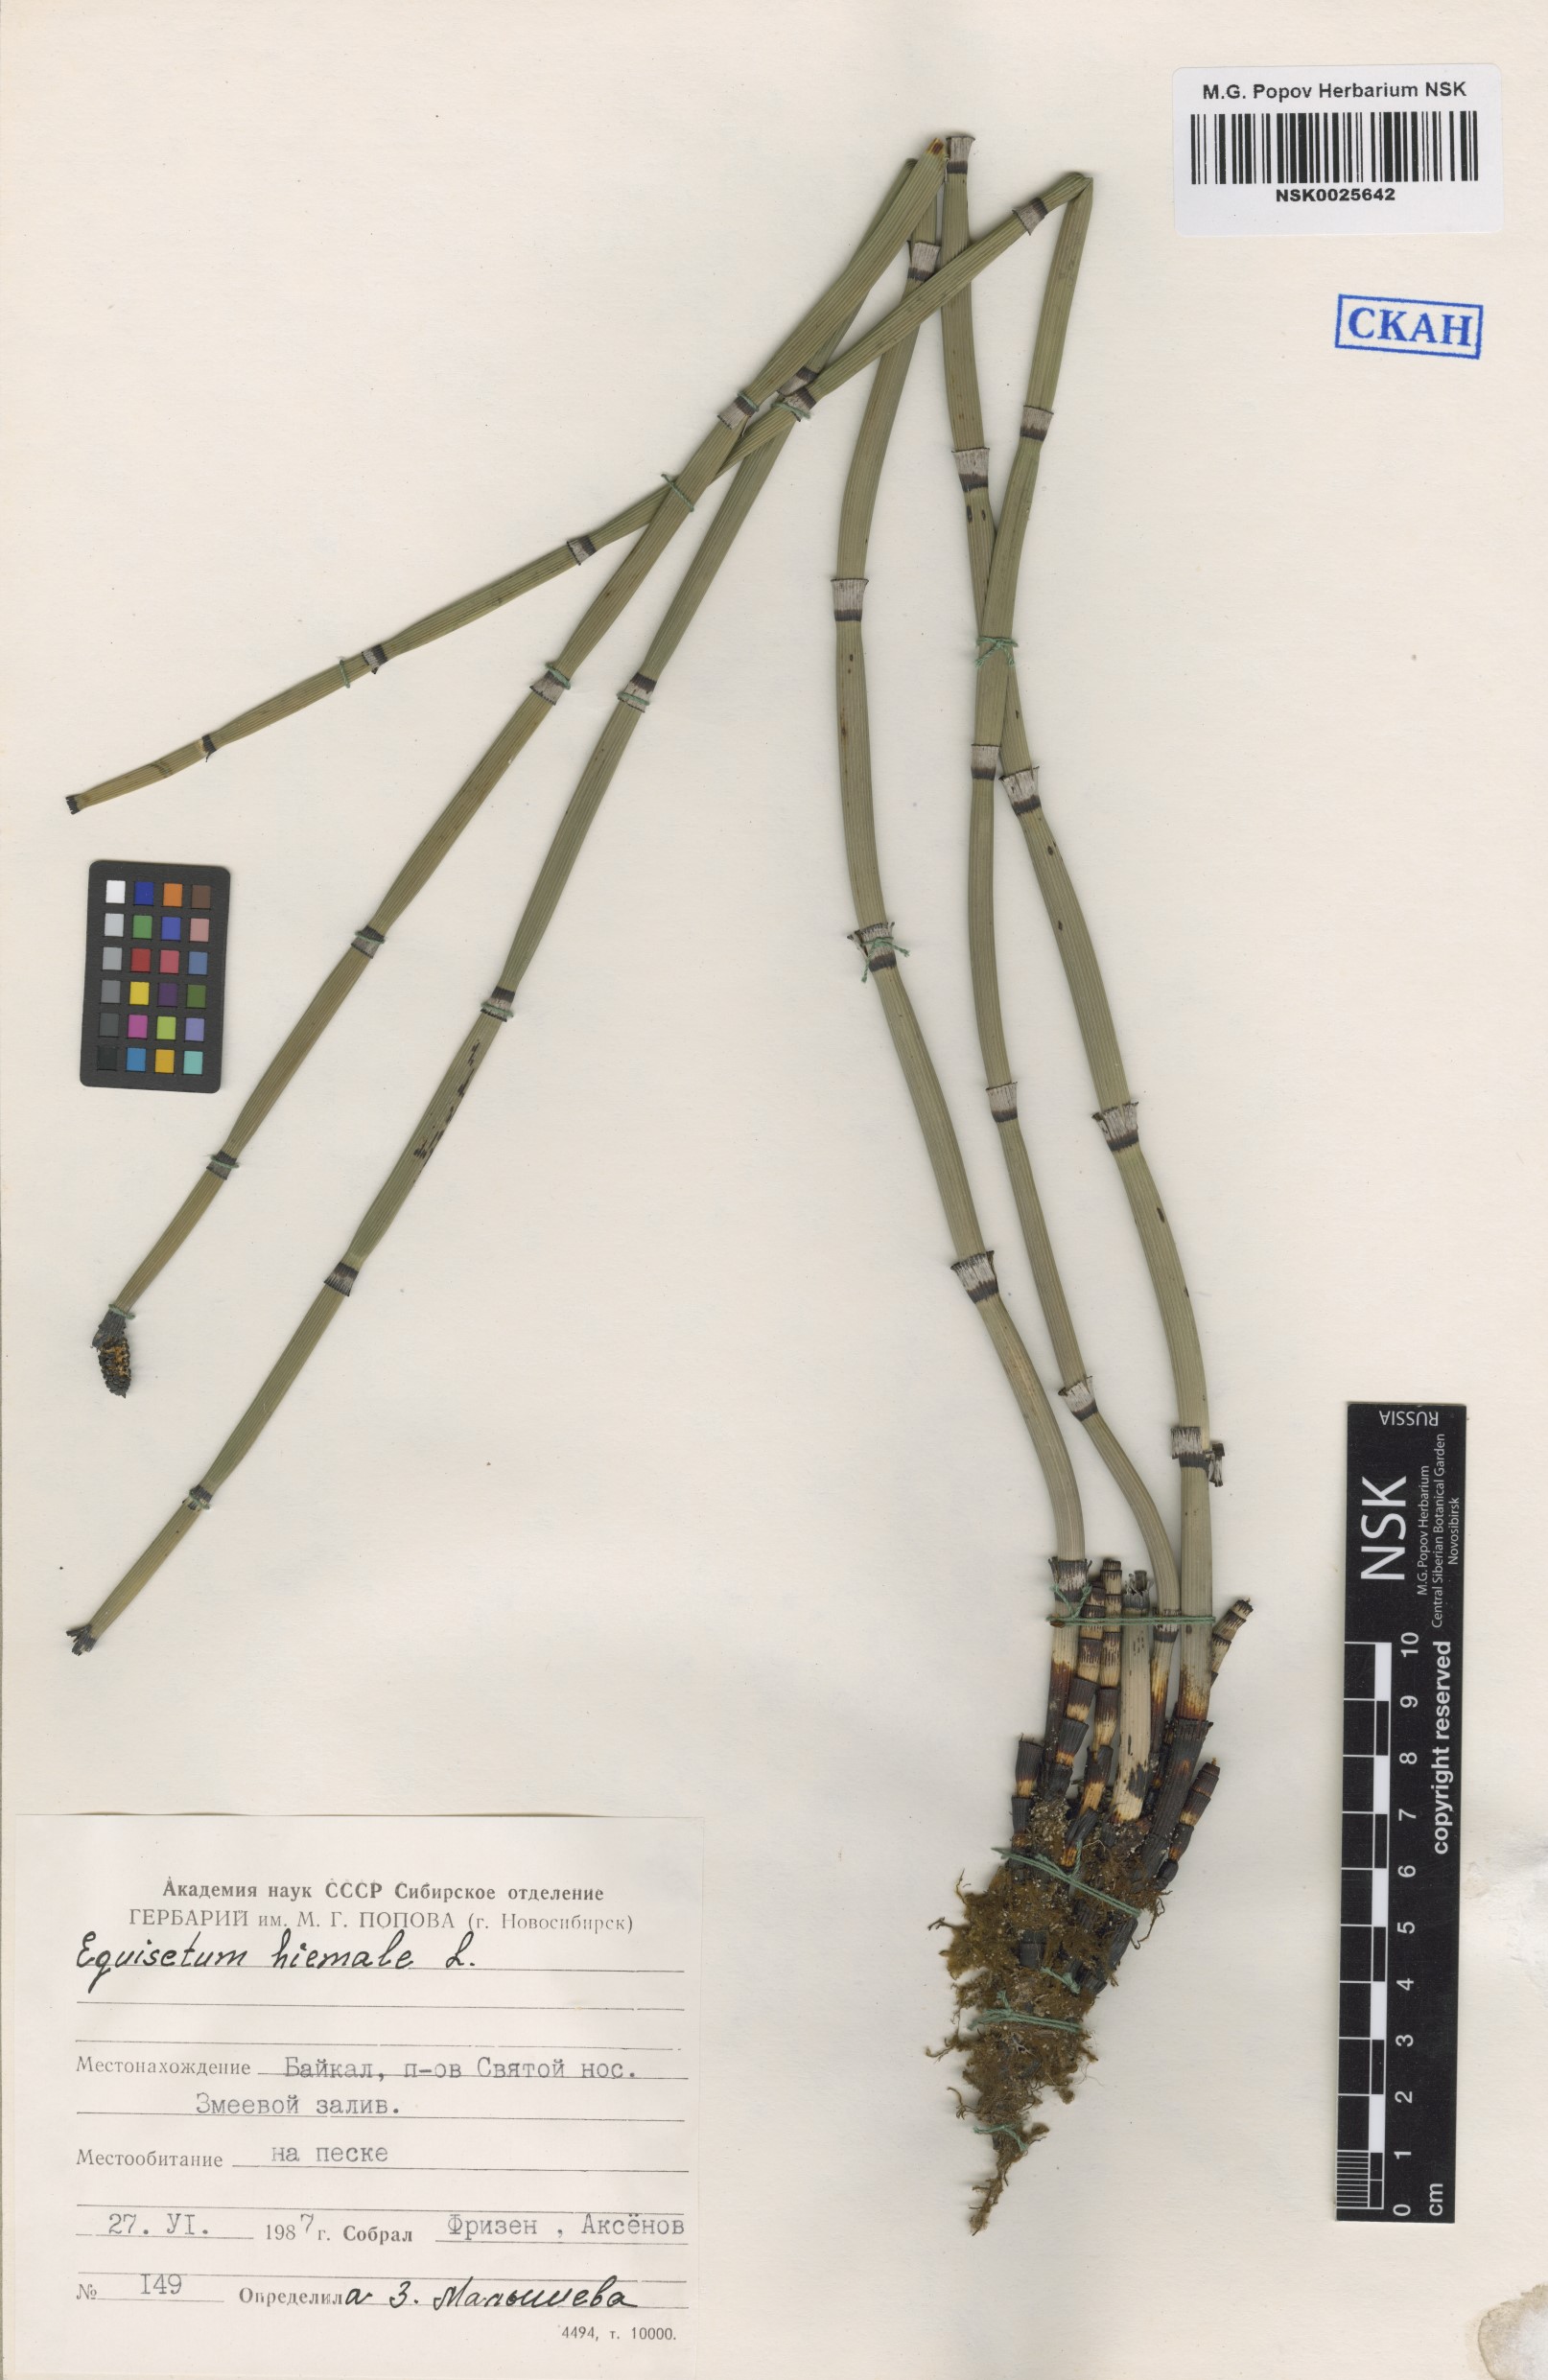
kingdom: Plantae
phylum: Tracheophyta
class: Polypodiopsida
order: Equisetales
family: Equisetaceae
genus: Equisetum
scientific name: Equisetum hyemale
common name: Rough horsetail
